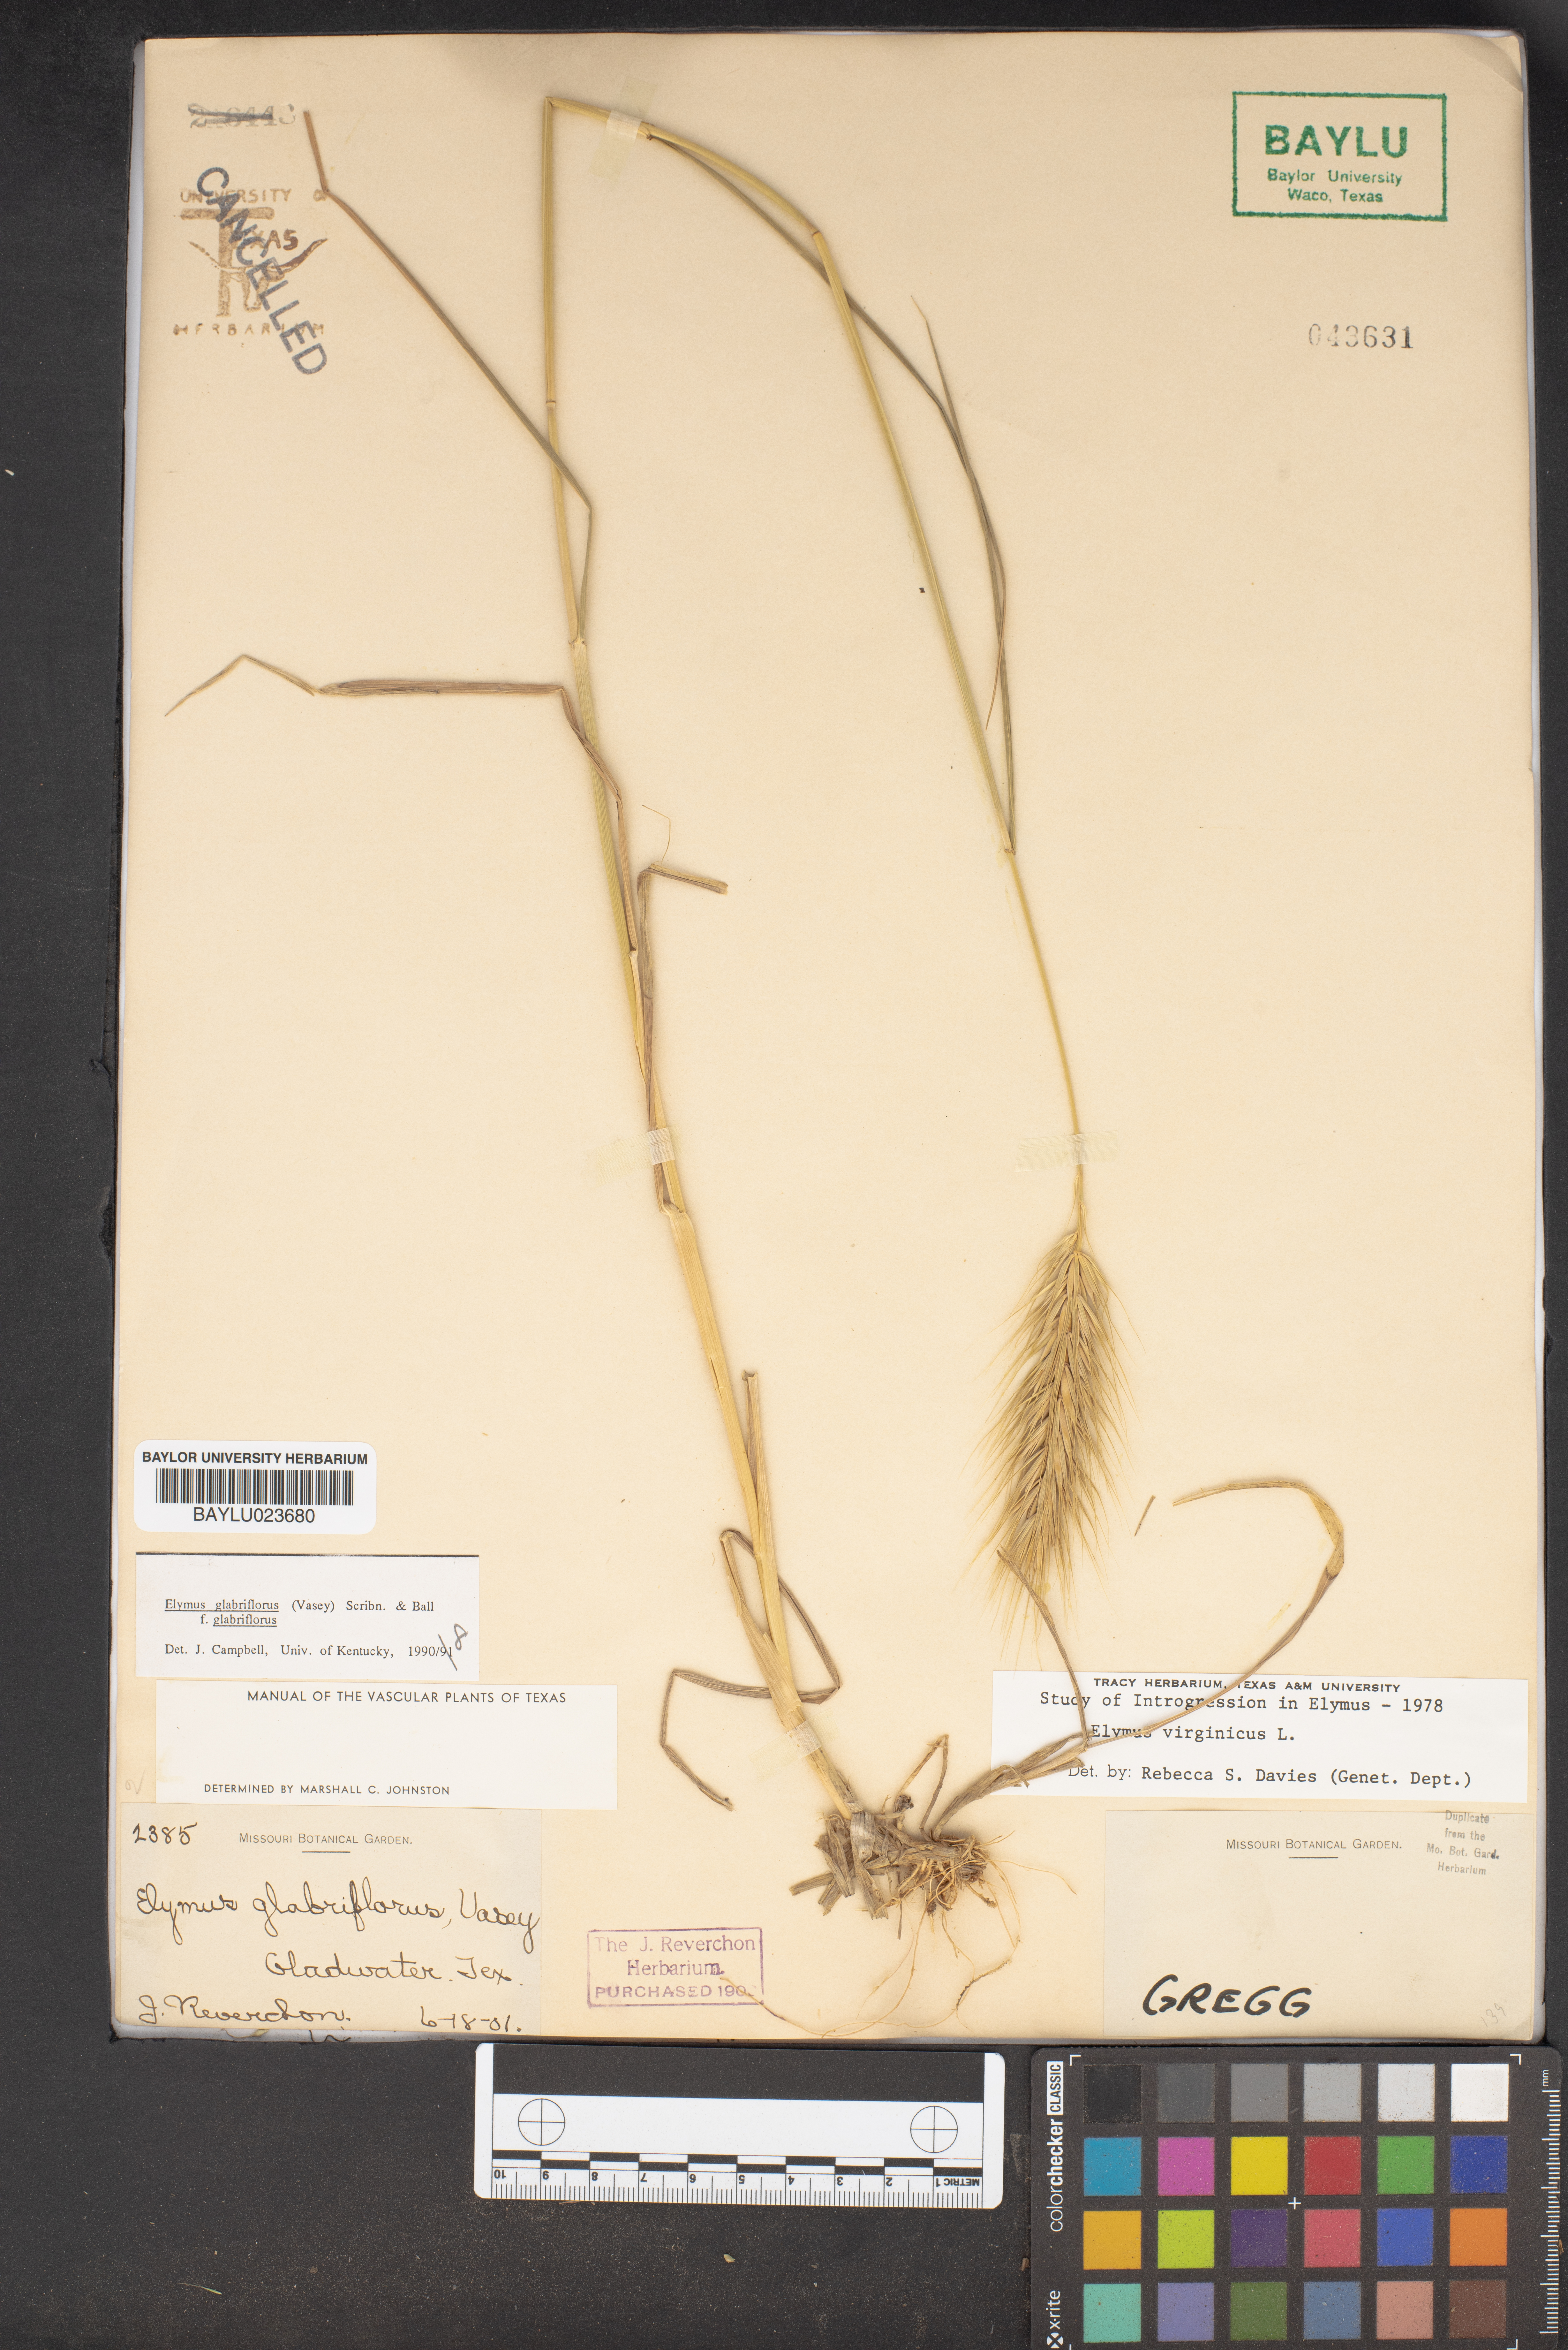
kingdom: Plantae
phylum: Tracheophyta
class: Liliopsida
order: Poales
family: Poaceae
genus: Elymus
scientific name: Elymus virginicus
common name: Common eastern wildrye
